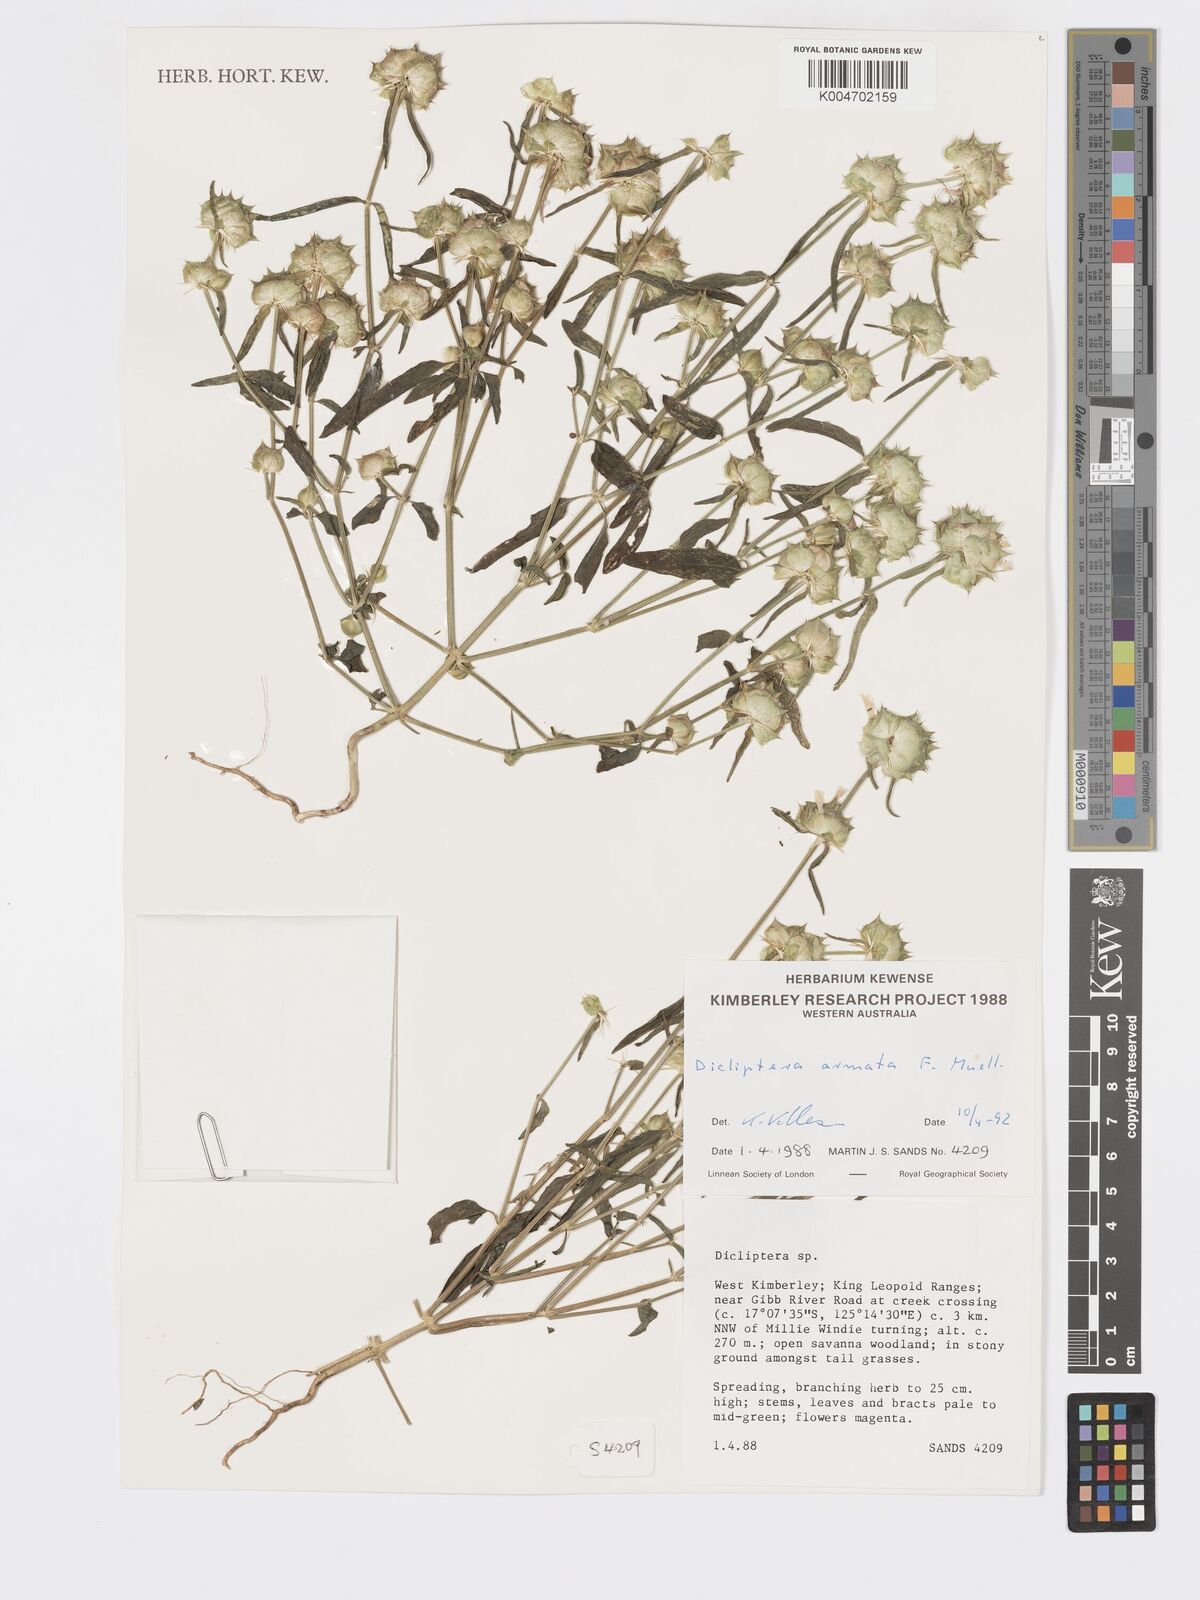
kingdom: Plantae
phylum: Tracheophyta
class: Magnoliopsida
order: Lamiales
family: Acanthaceae
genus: Dicliptera
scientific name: Dicliptera armata
